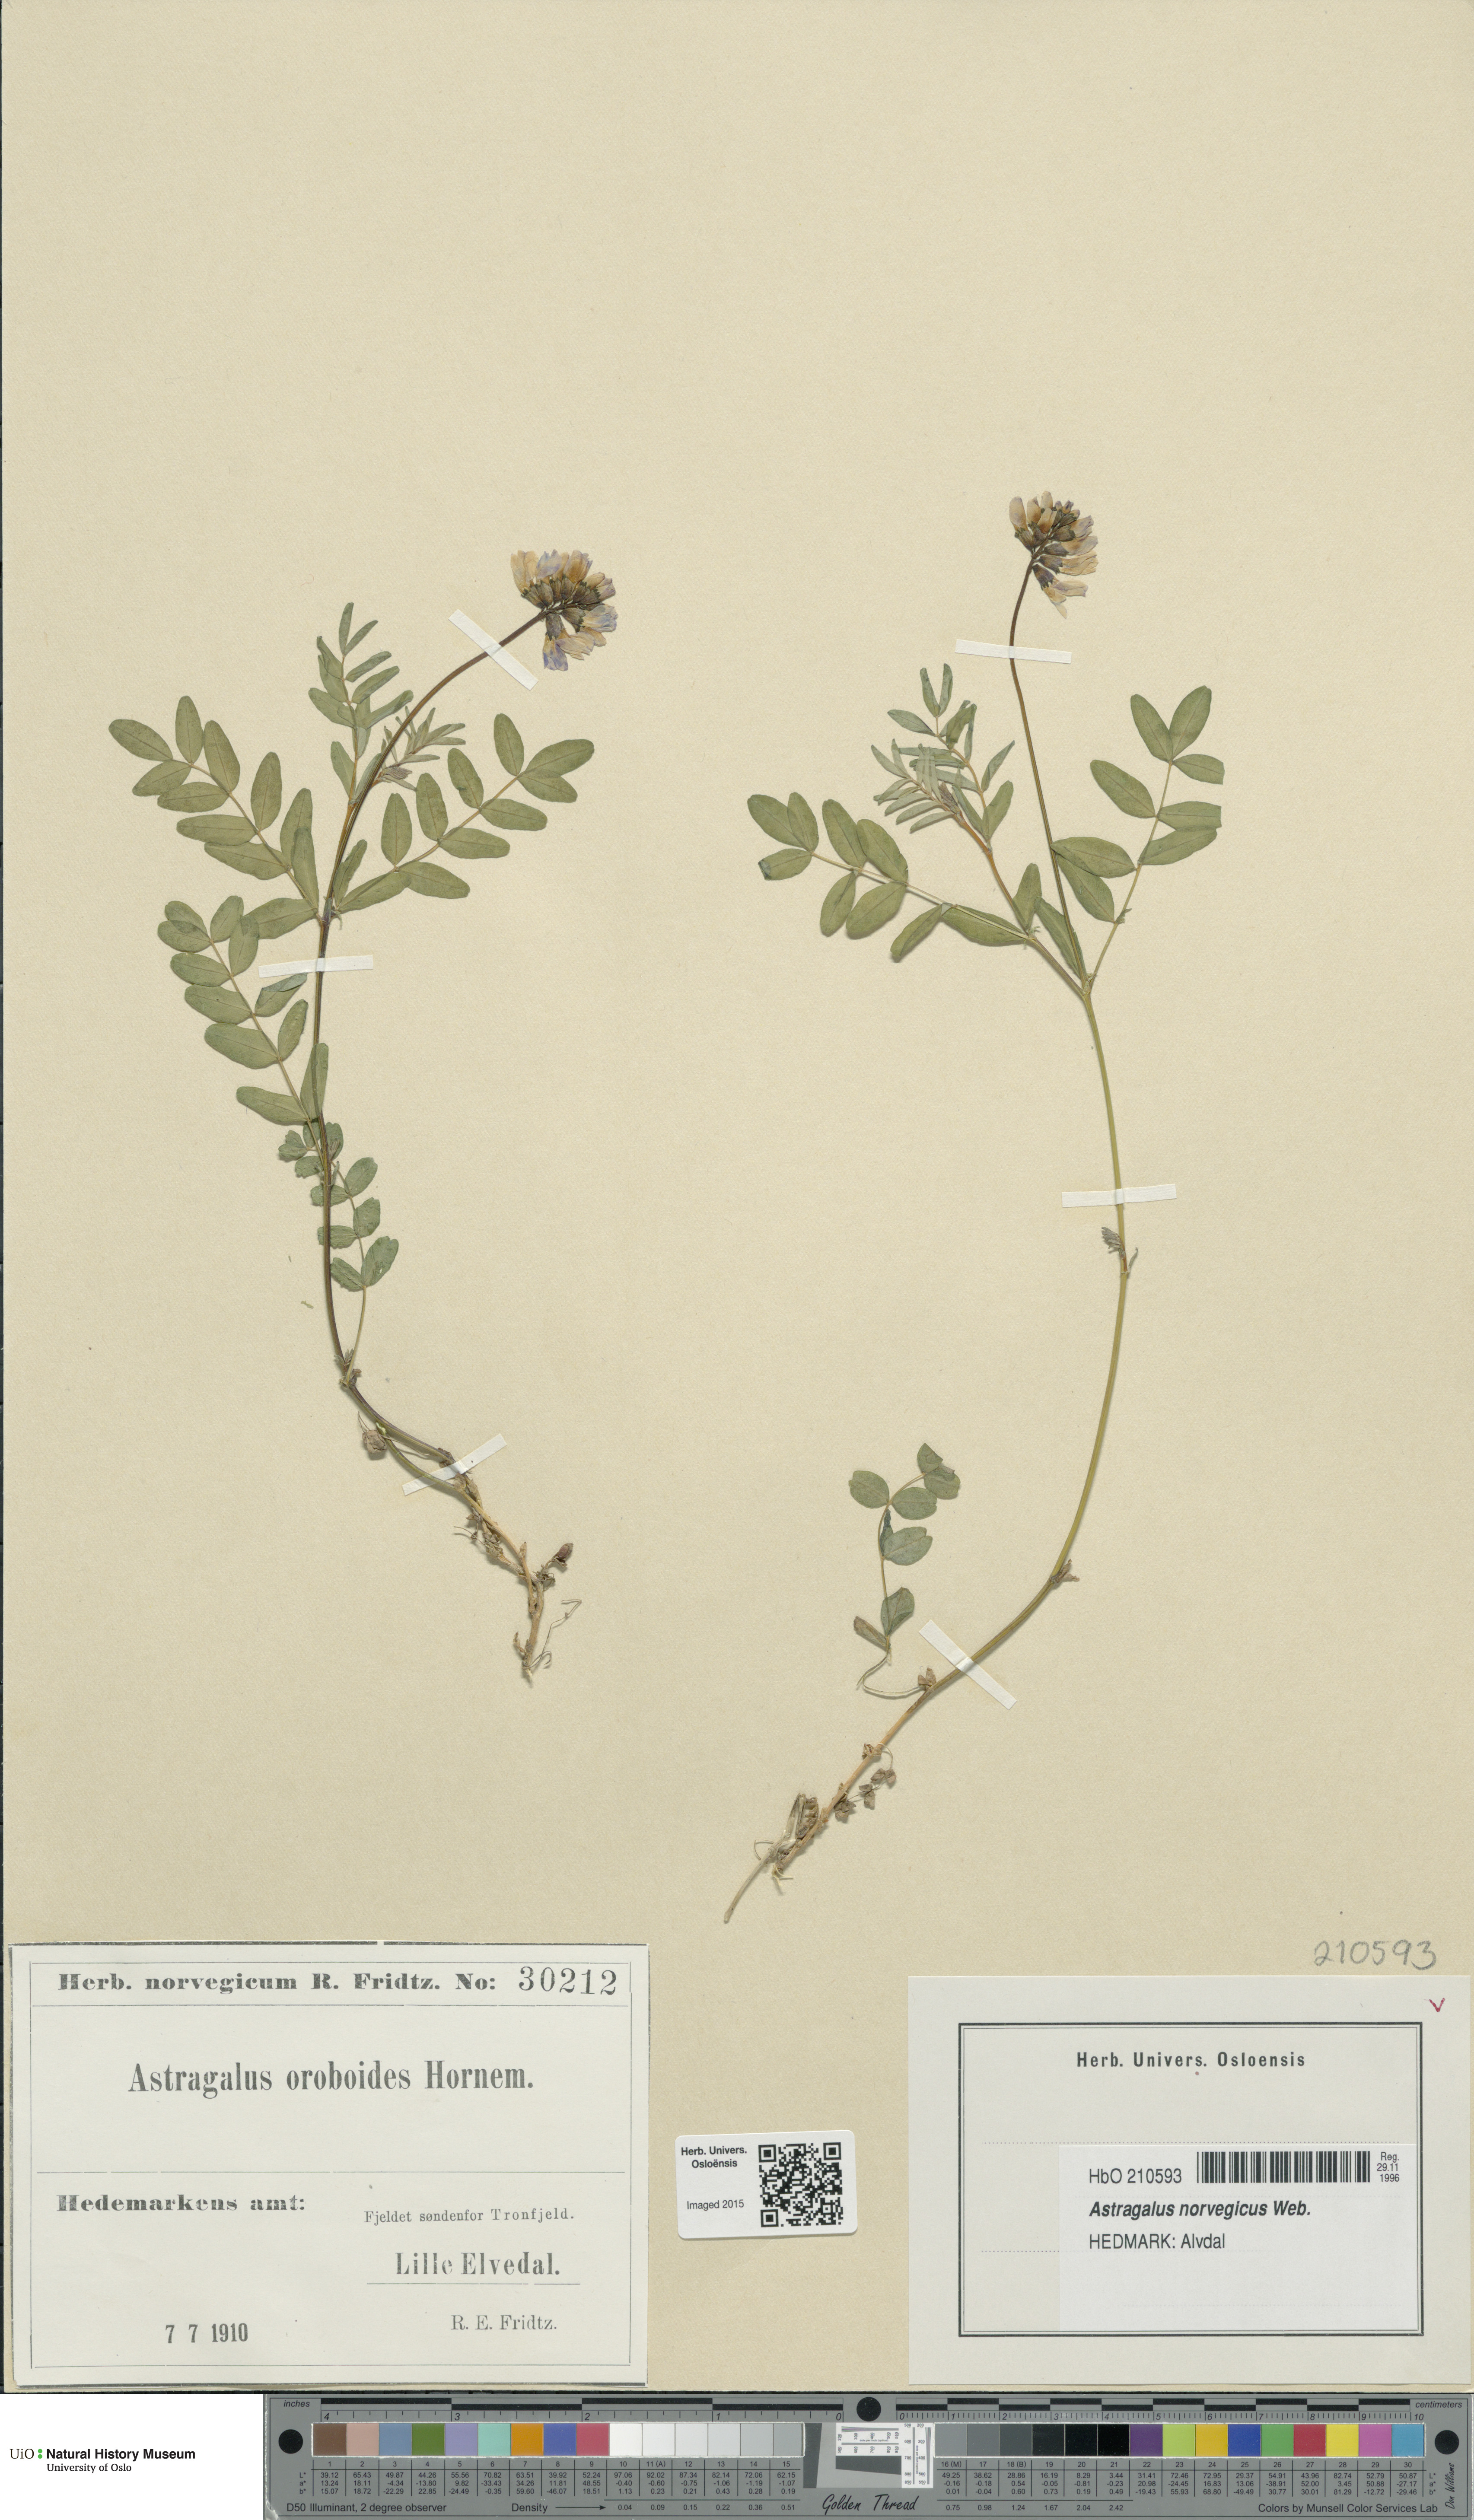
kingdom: Plantae
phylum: Tracheophyta
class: Magnoliopsida
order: Fabales
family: Fabaceae
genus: Astragalus
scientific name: Astragalus norvegicus
